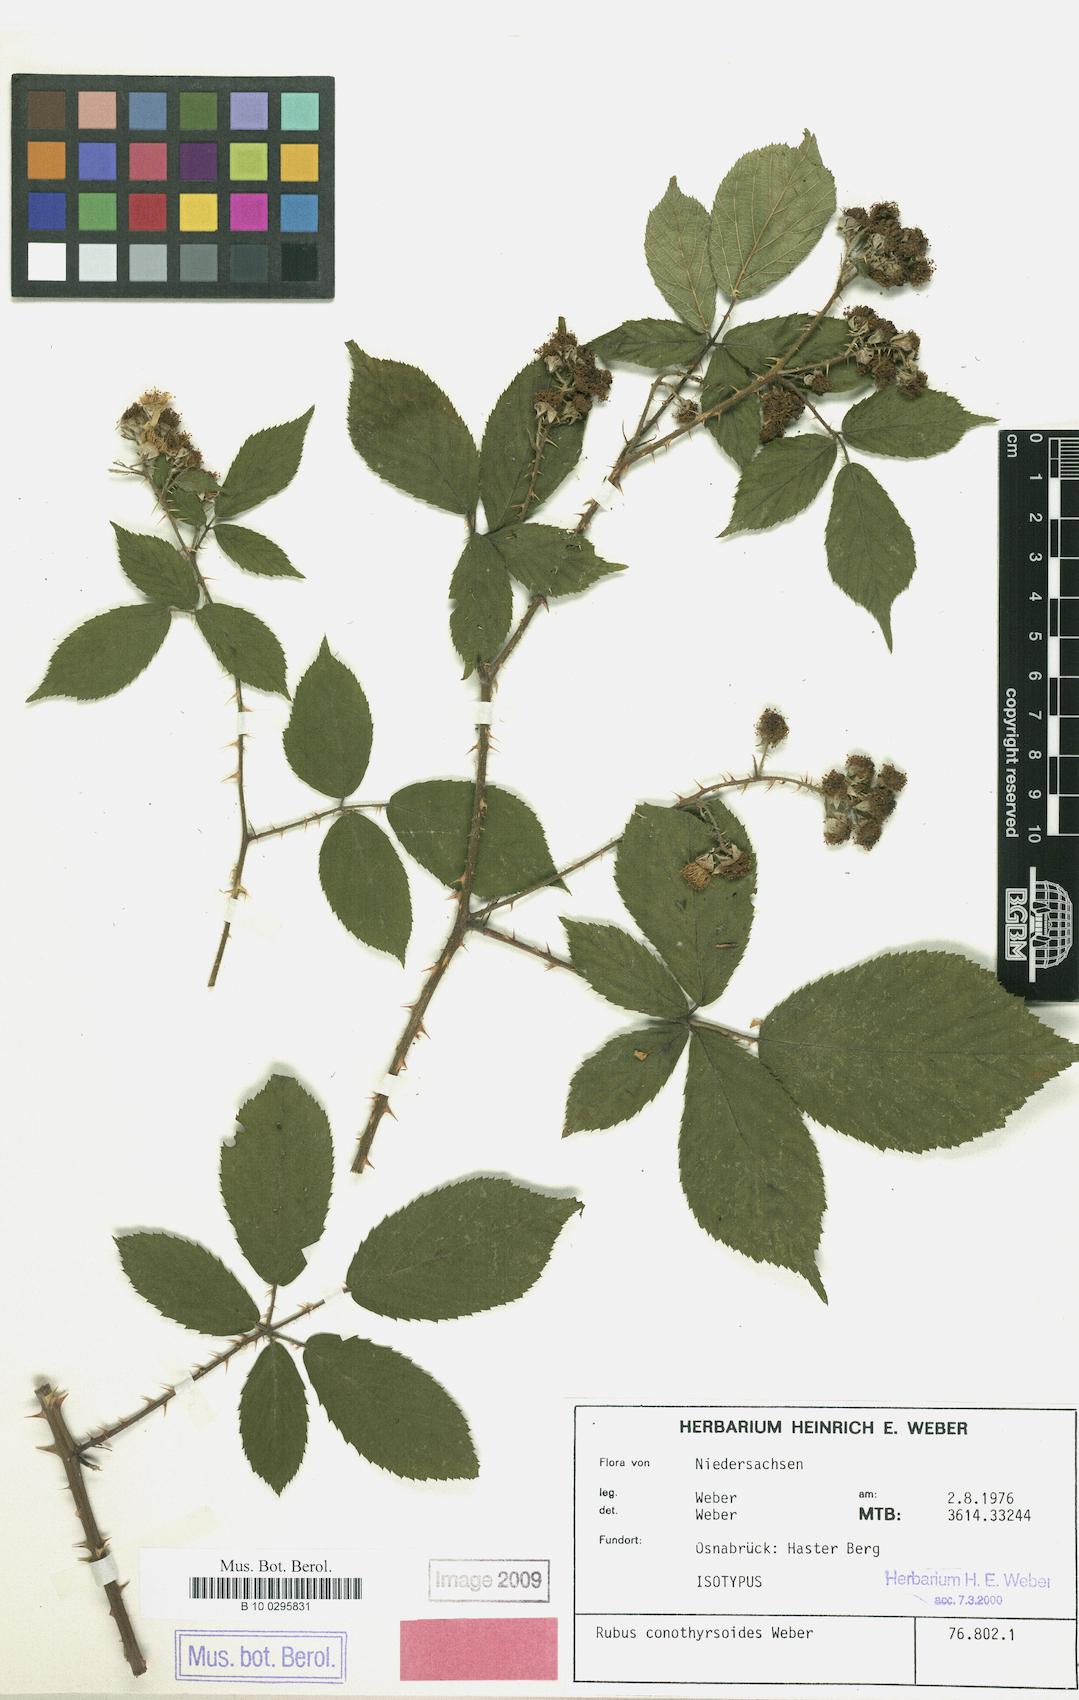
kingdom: Plantae
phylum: Tracheophyta
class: Magnoliopsida
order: Rosales
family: Rosaceae
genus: Rubus
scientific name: Rubus conothyrsoides
